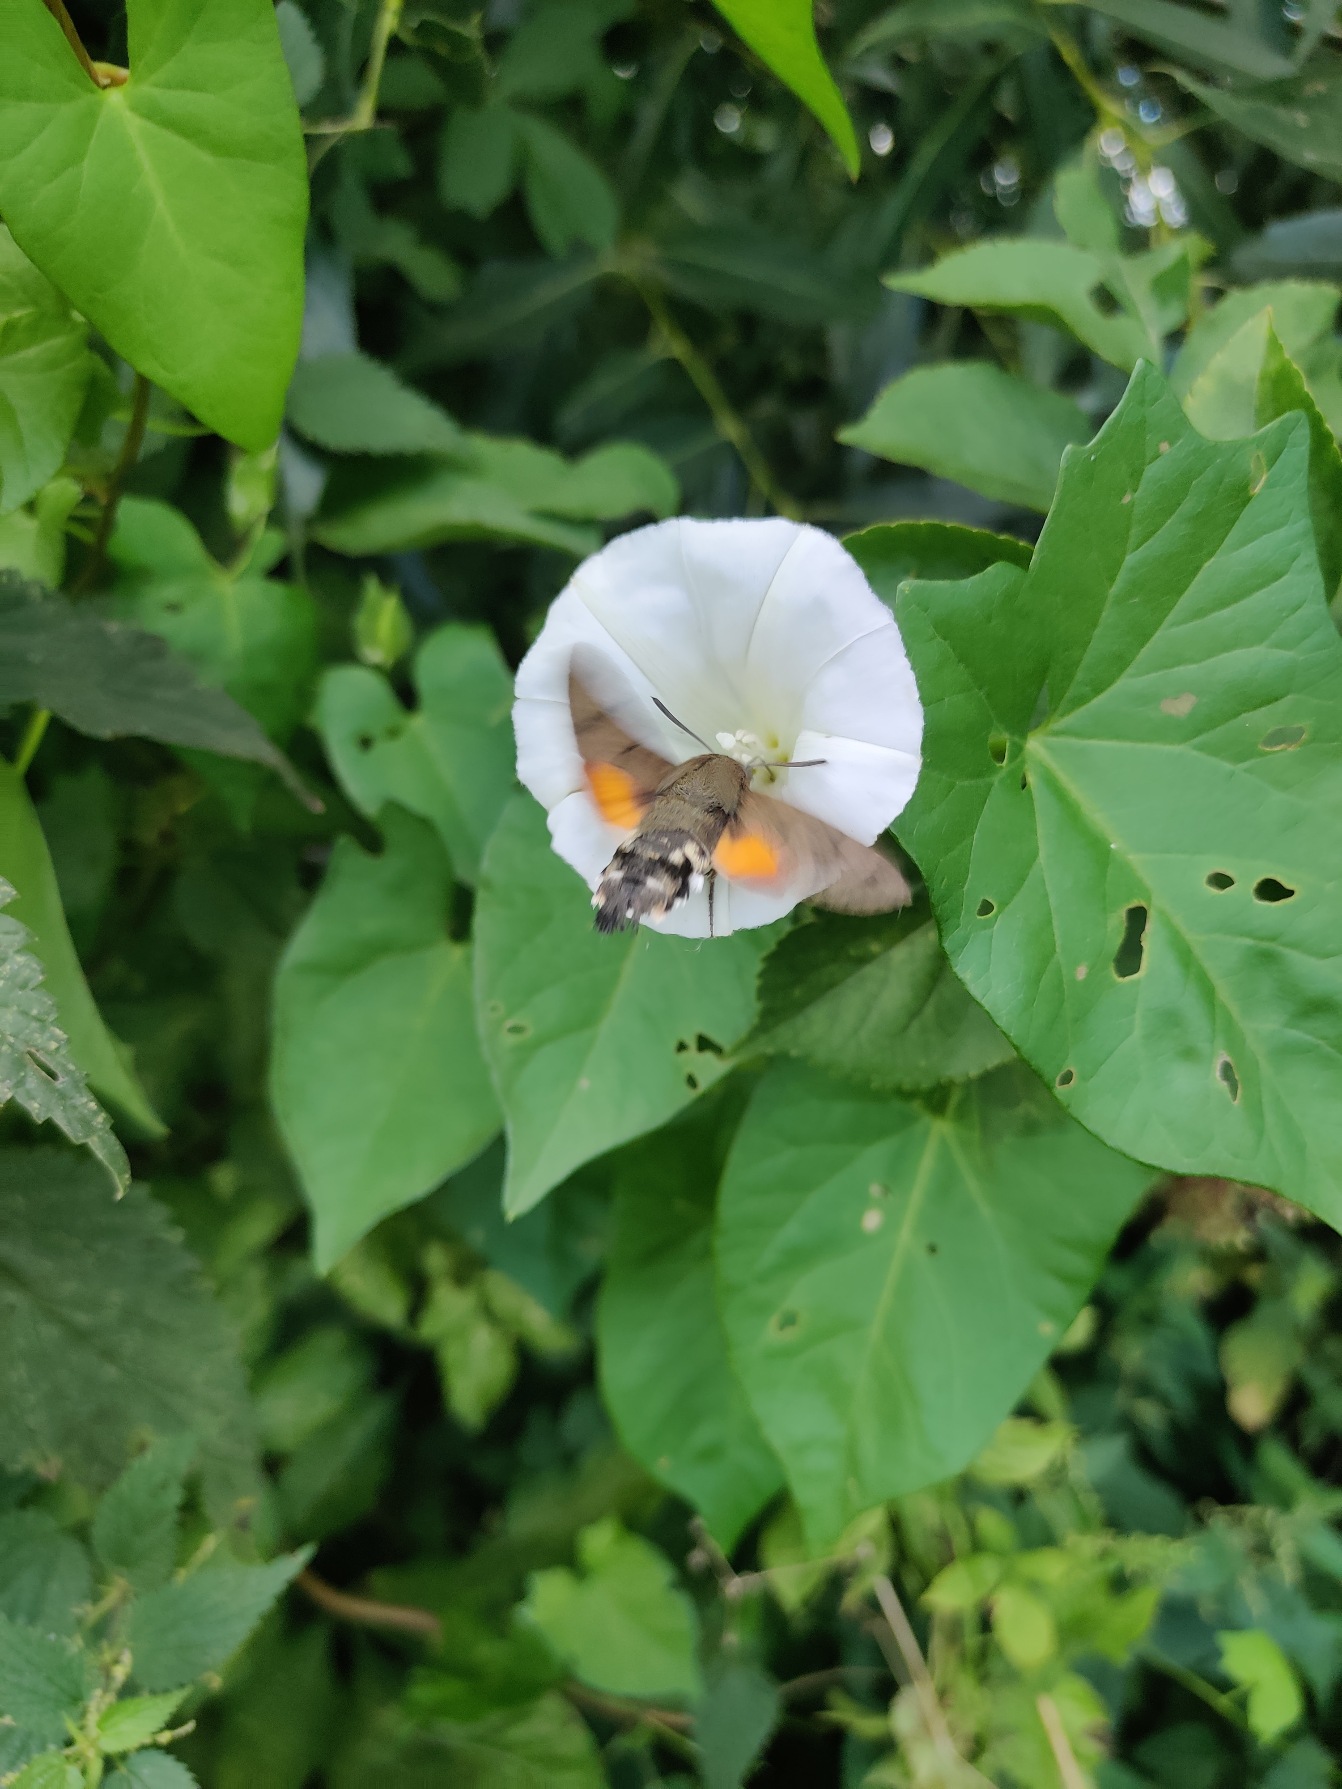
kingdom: Animalia
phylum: Arthropoda
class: Insecta
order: Lepidoptera
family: Sphingidae
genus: Macroglossum
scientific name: Macroglossum stellatarum
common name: Duehale
